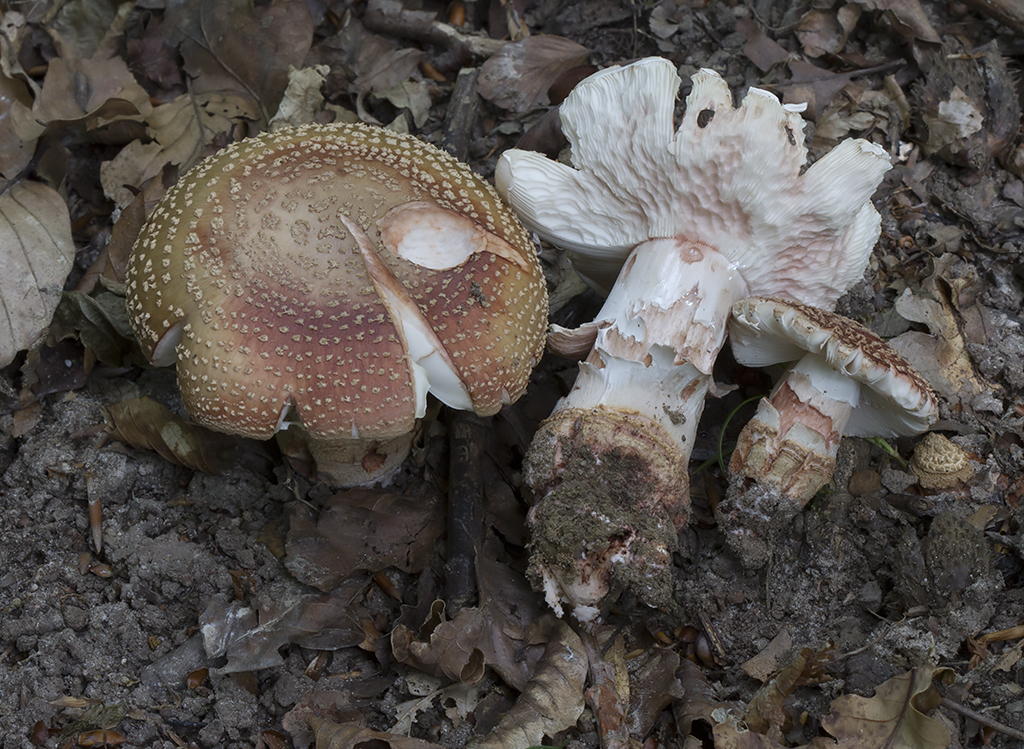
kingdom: Fungi
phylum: Basidiomycota
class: Agaricomycetes
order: Agaricales
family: Amanitaceae
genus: Amanita
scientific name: Amanita rubescens
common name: rødmende fluesvamp
